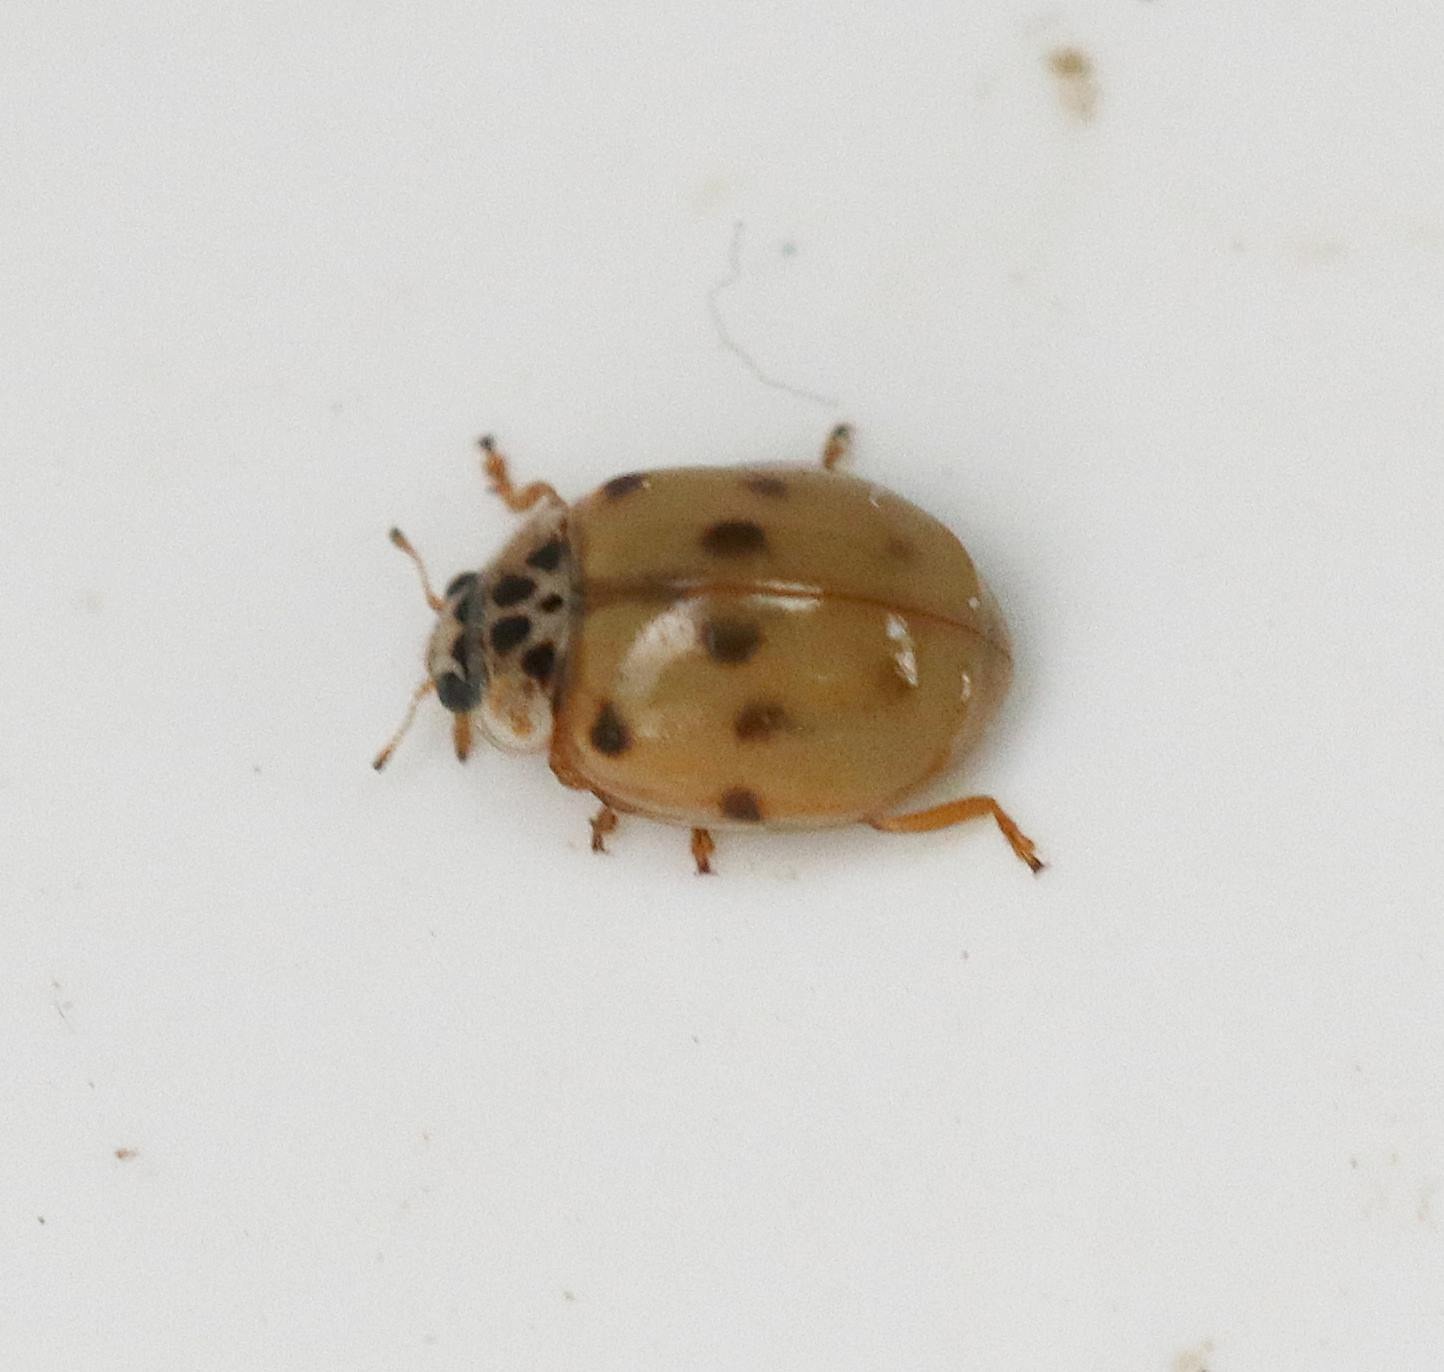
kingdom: Animalia
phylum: Arthropoda
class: Insecta
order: Coleoptera
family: Coccinellidae
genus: Adalia
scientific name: Adalia decempunctata
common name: Tiplettet mariehøne
